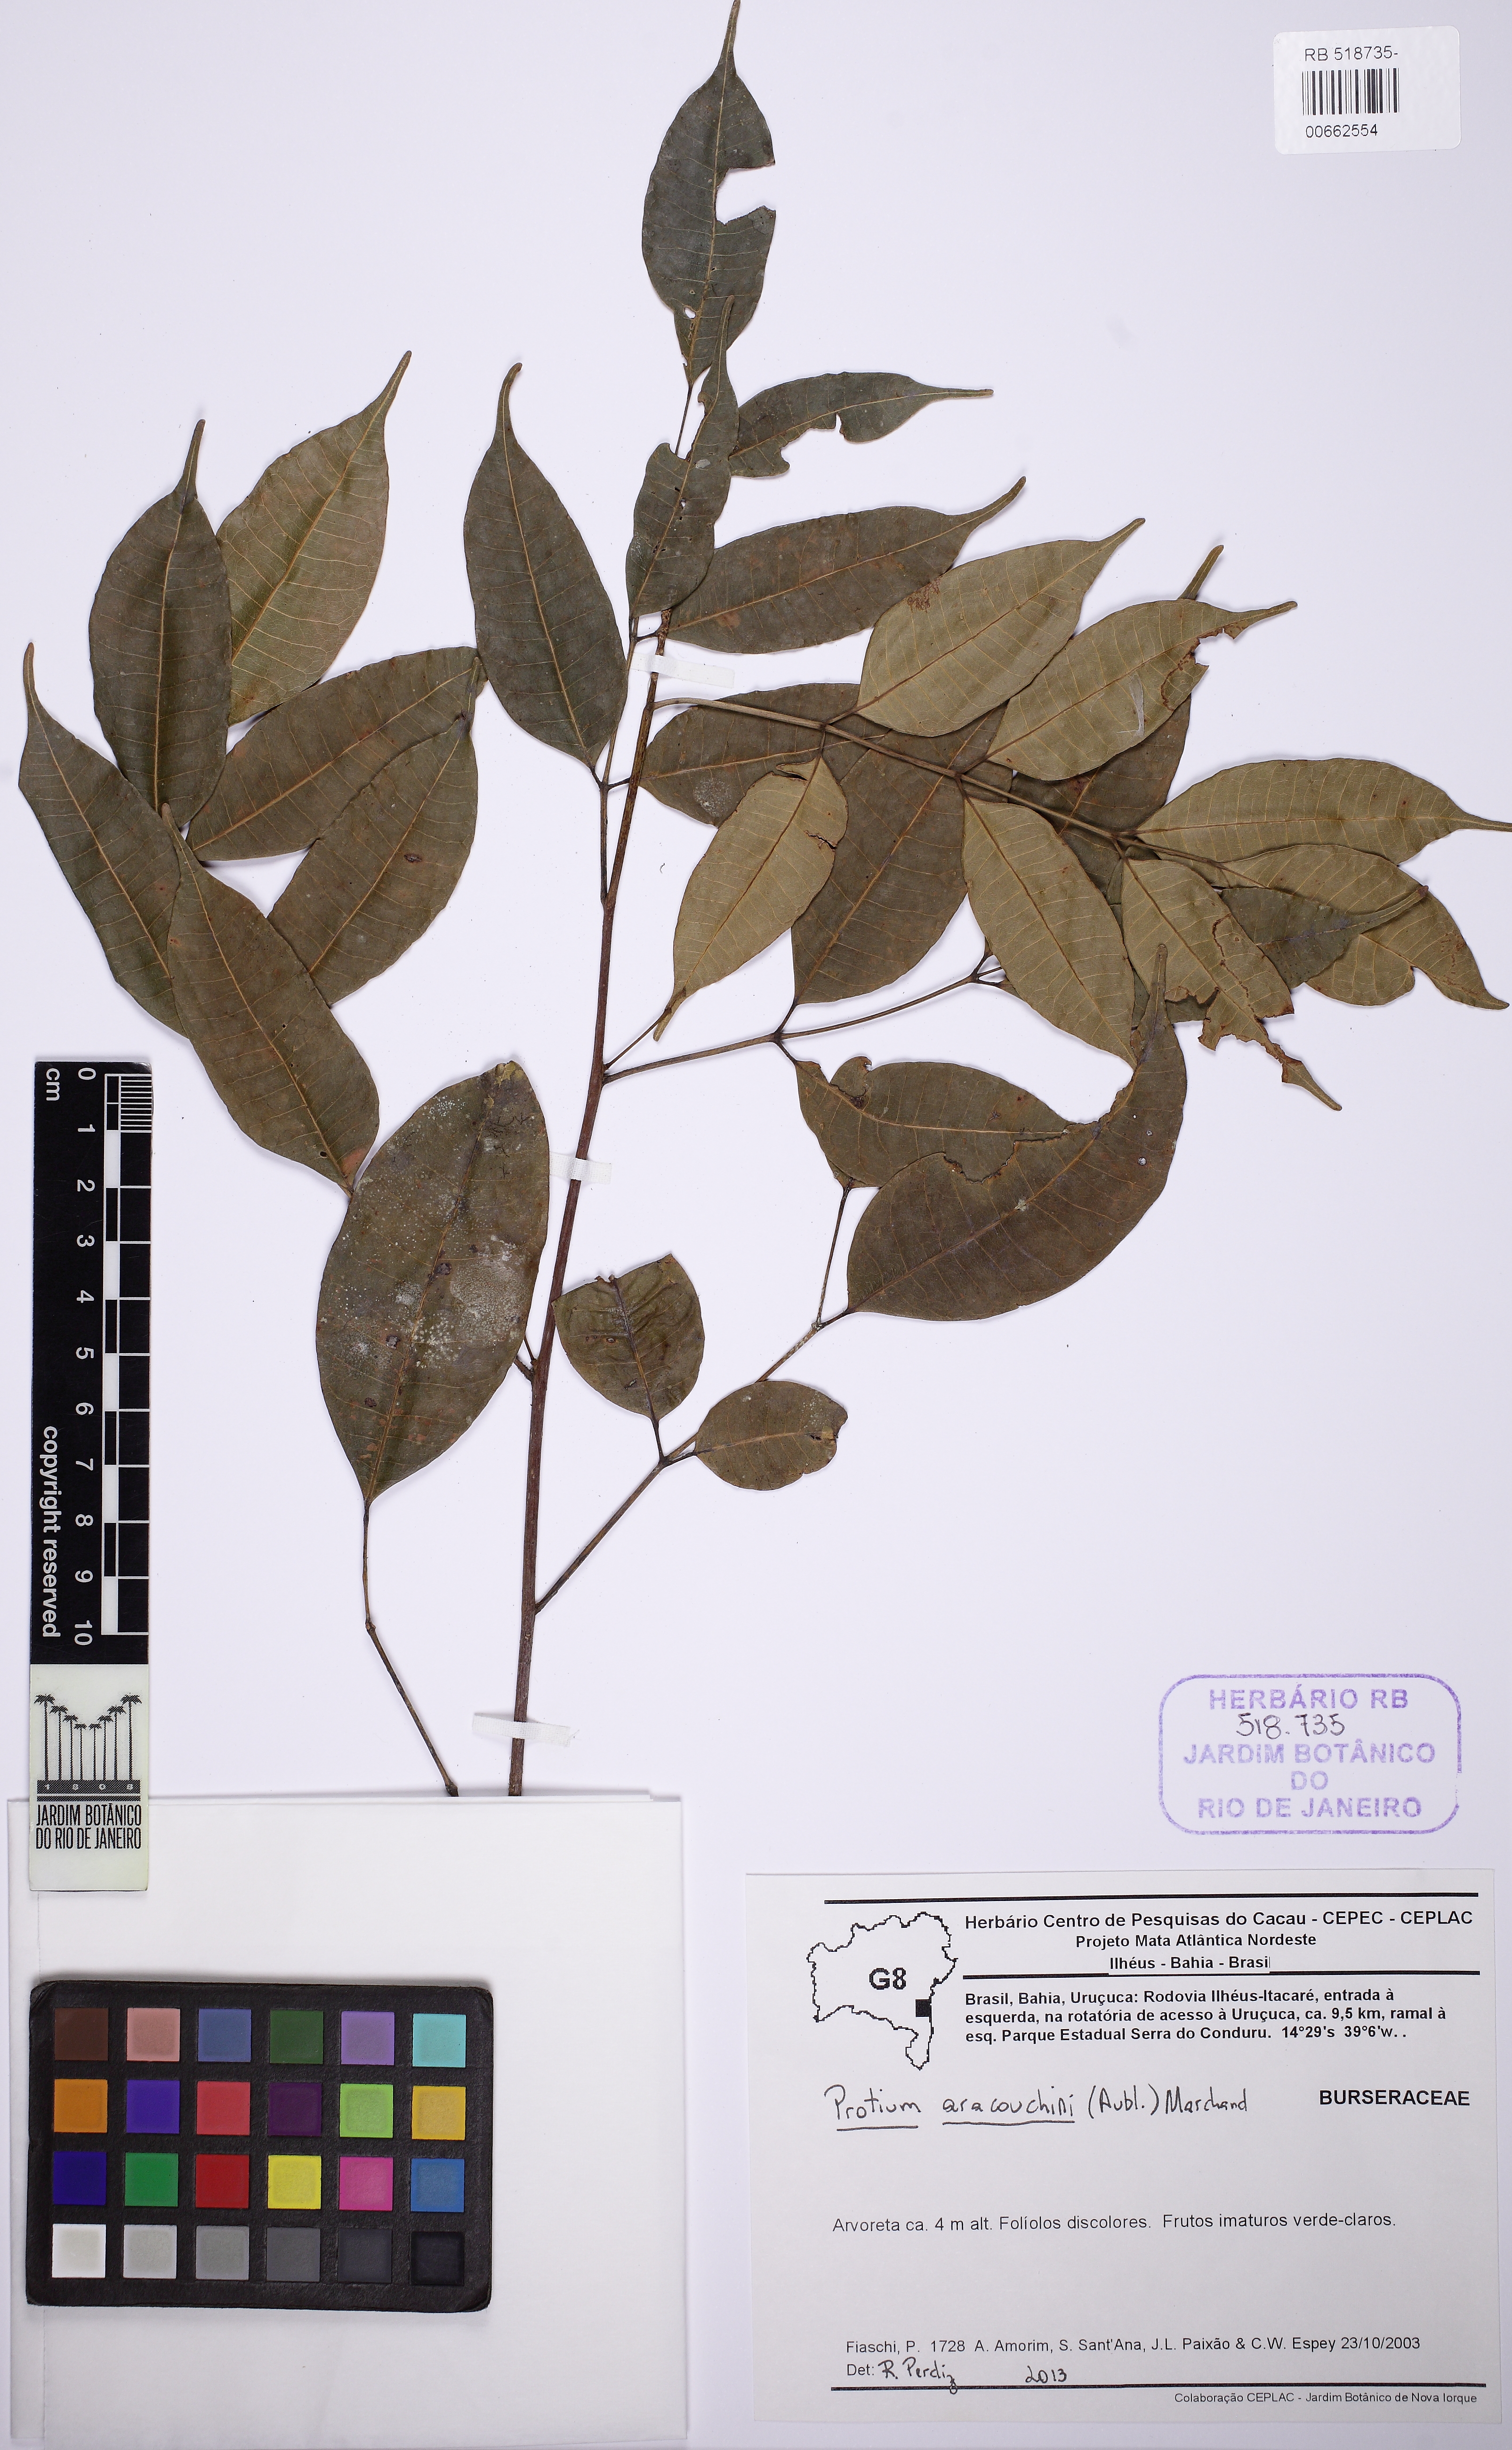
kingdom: Plantae
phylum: Tracheophyta
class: Magnoliopsida
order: Sapindales
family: Burseraceae
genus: Protium
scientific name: Protium aracouchini
